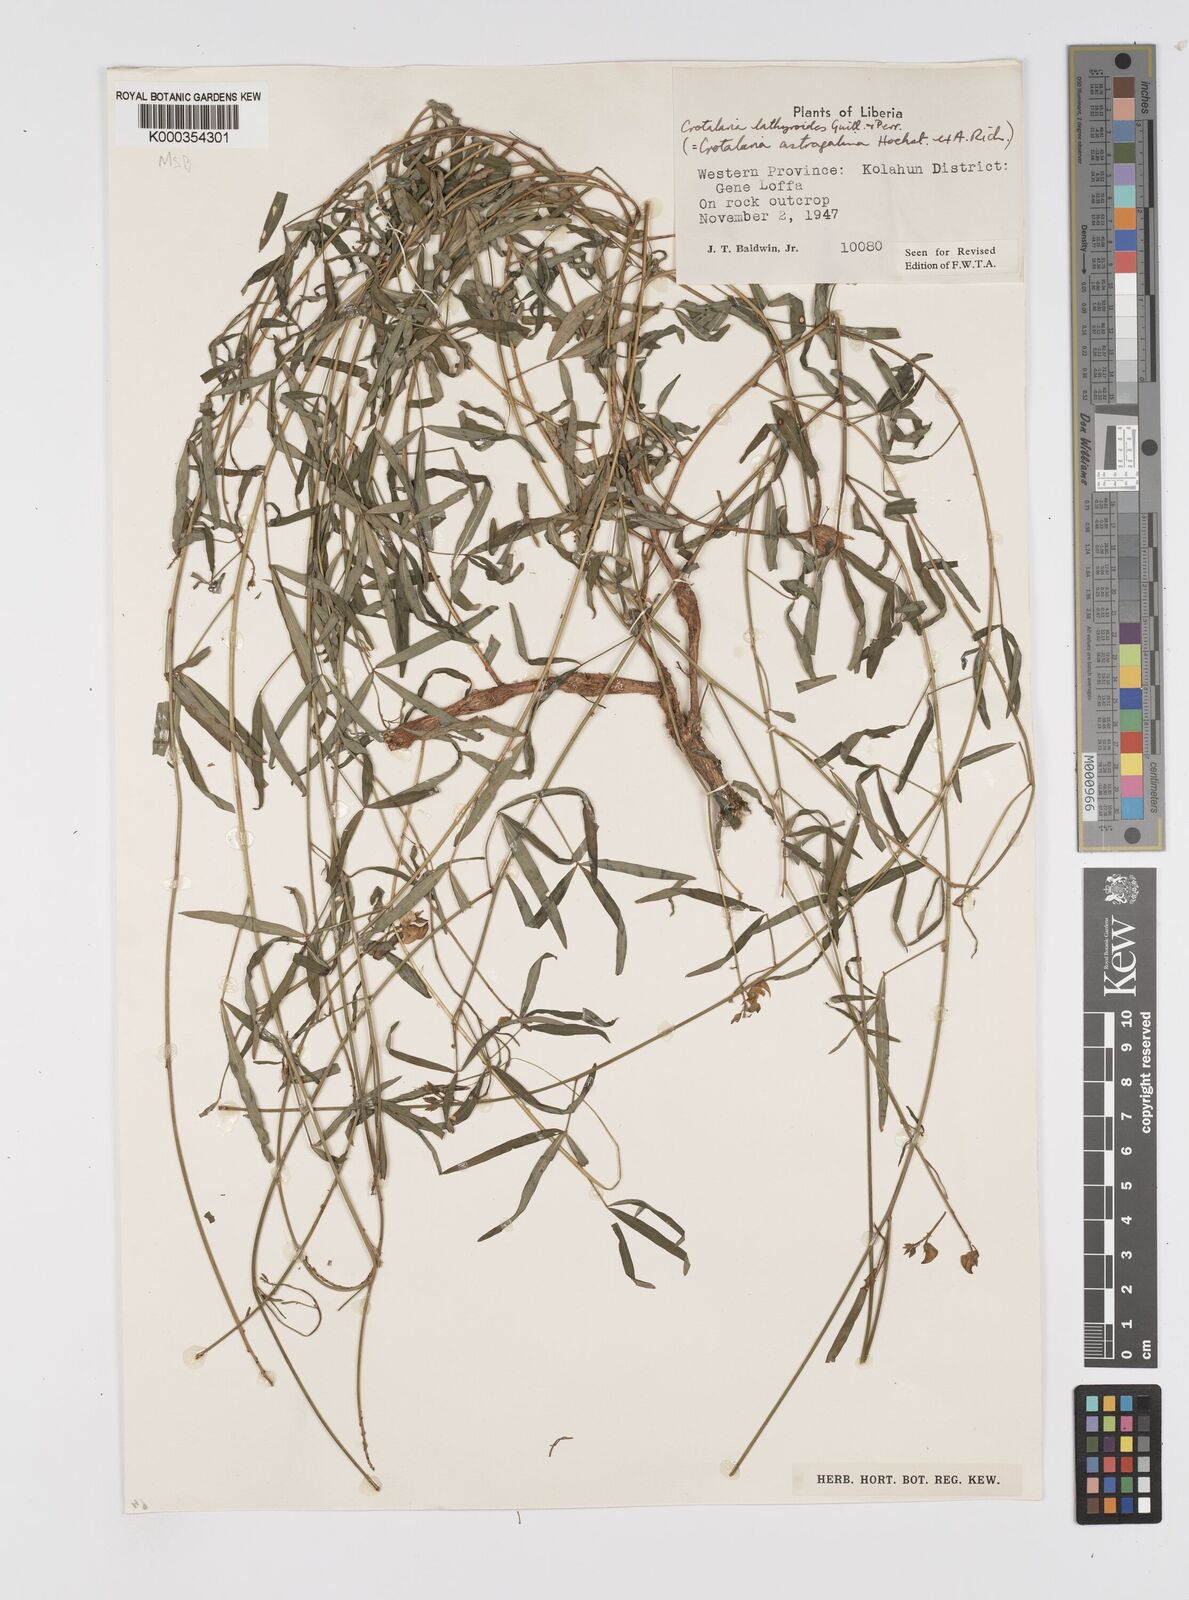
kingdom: Plantae
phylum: Tracheophyta
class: Magnoliopsida
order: Fabales
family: Fabaceae
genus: Crotalaria
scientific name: Crotalaria lathyroides
